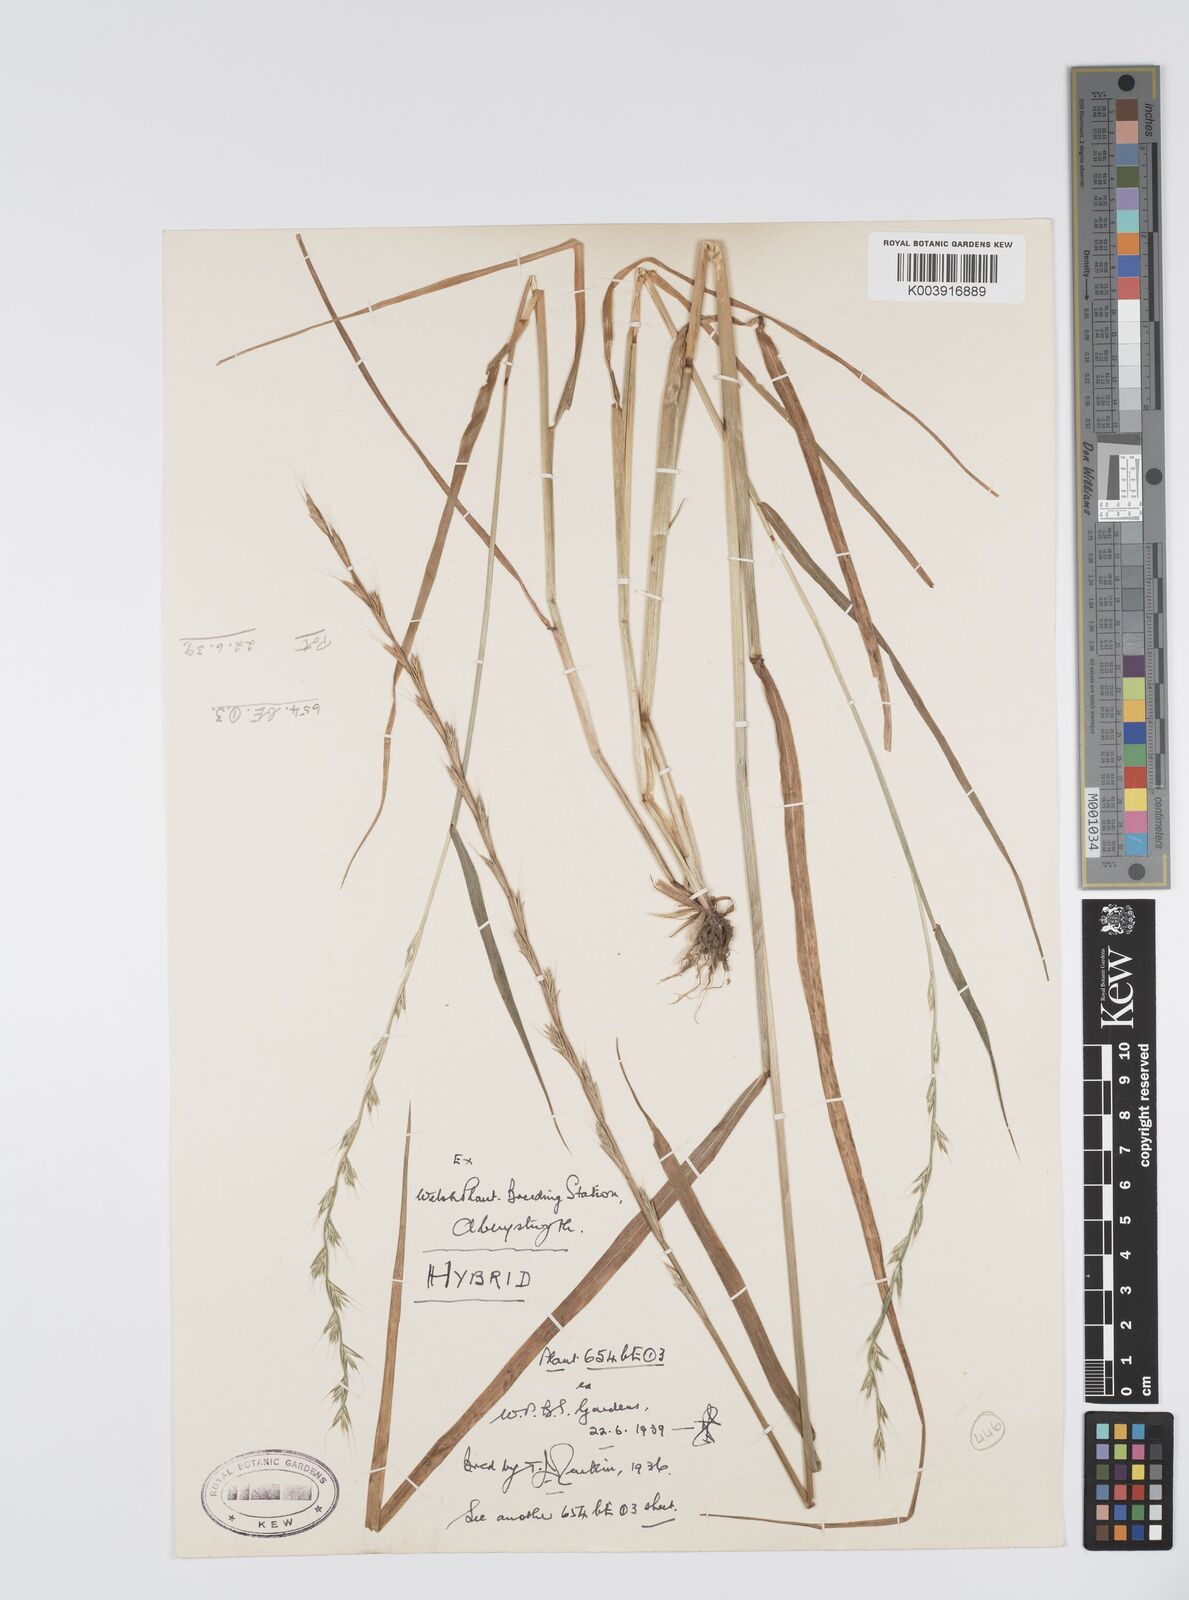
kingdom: Plantae
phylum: Tracheophyta
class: Liliopsida
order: Poales
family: Poaceae
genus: Lolium
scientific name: Lolium multiflorum
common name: Annual ryegrass
